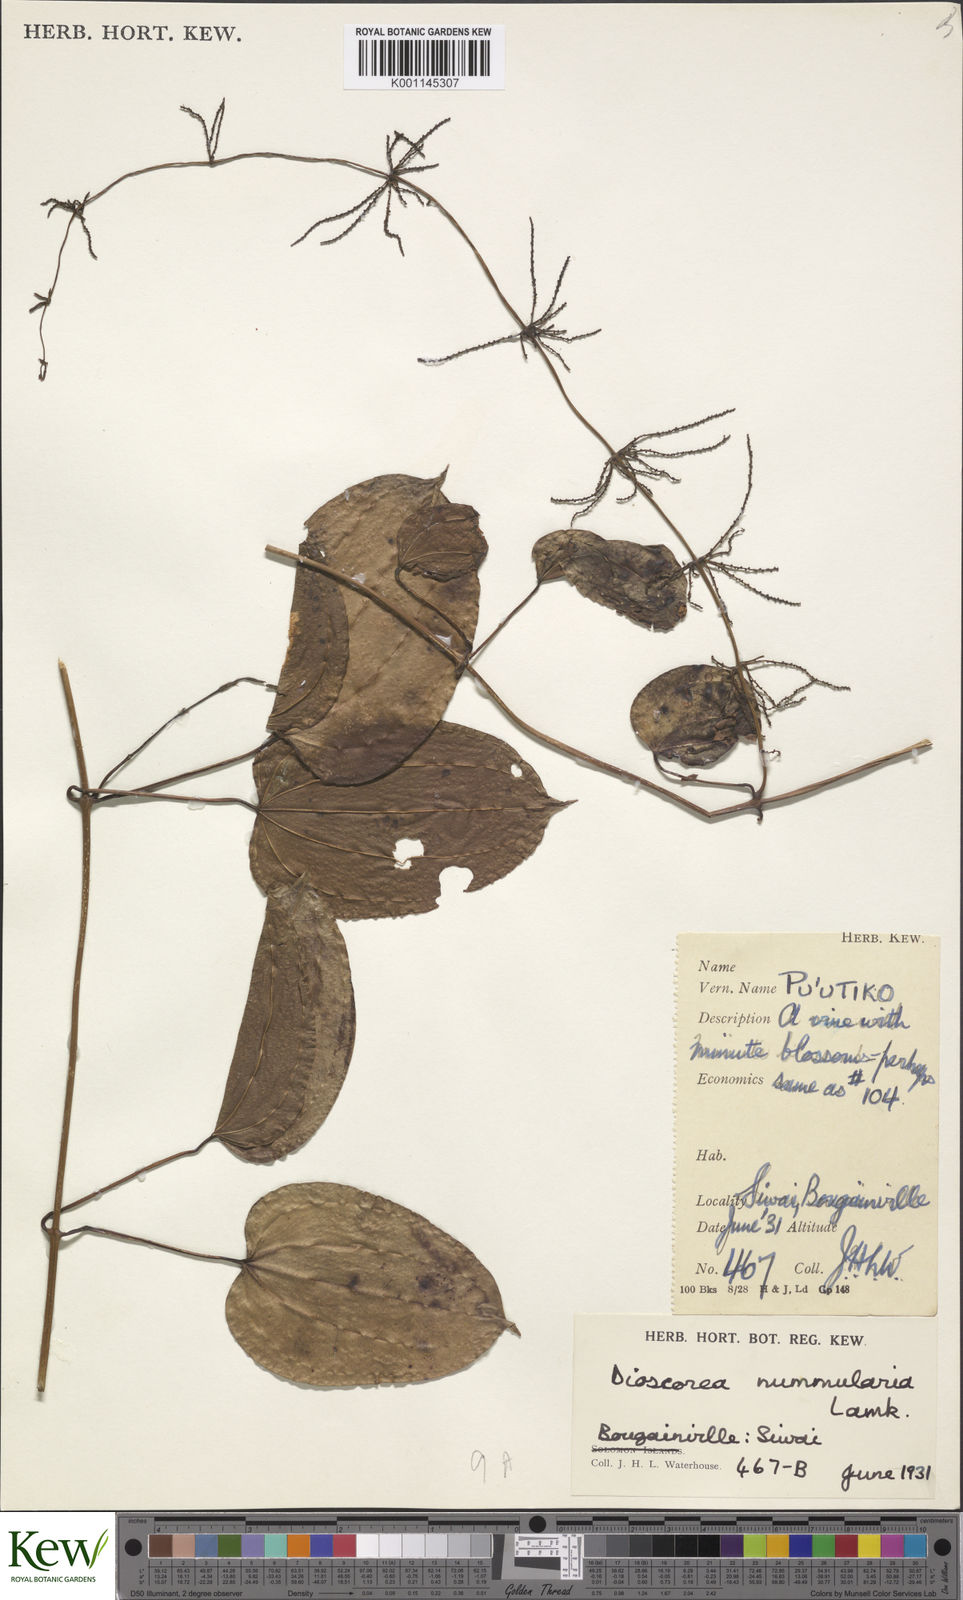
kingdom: Plantae
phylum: Tracheophyta
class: Liliopsida
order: Dioscoreales
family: Dioscoreaceae
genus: Dioscorea
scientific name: Dioscorea nummularia
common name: Pacific yam
